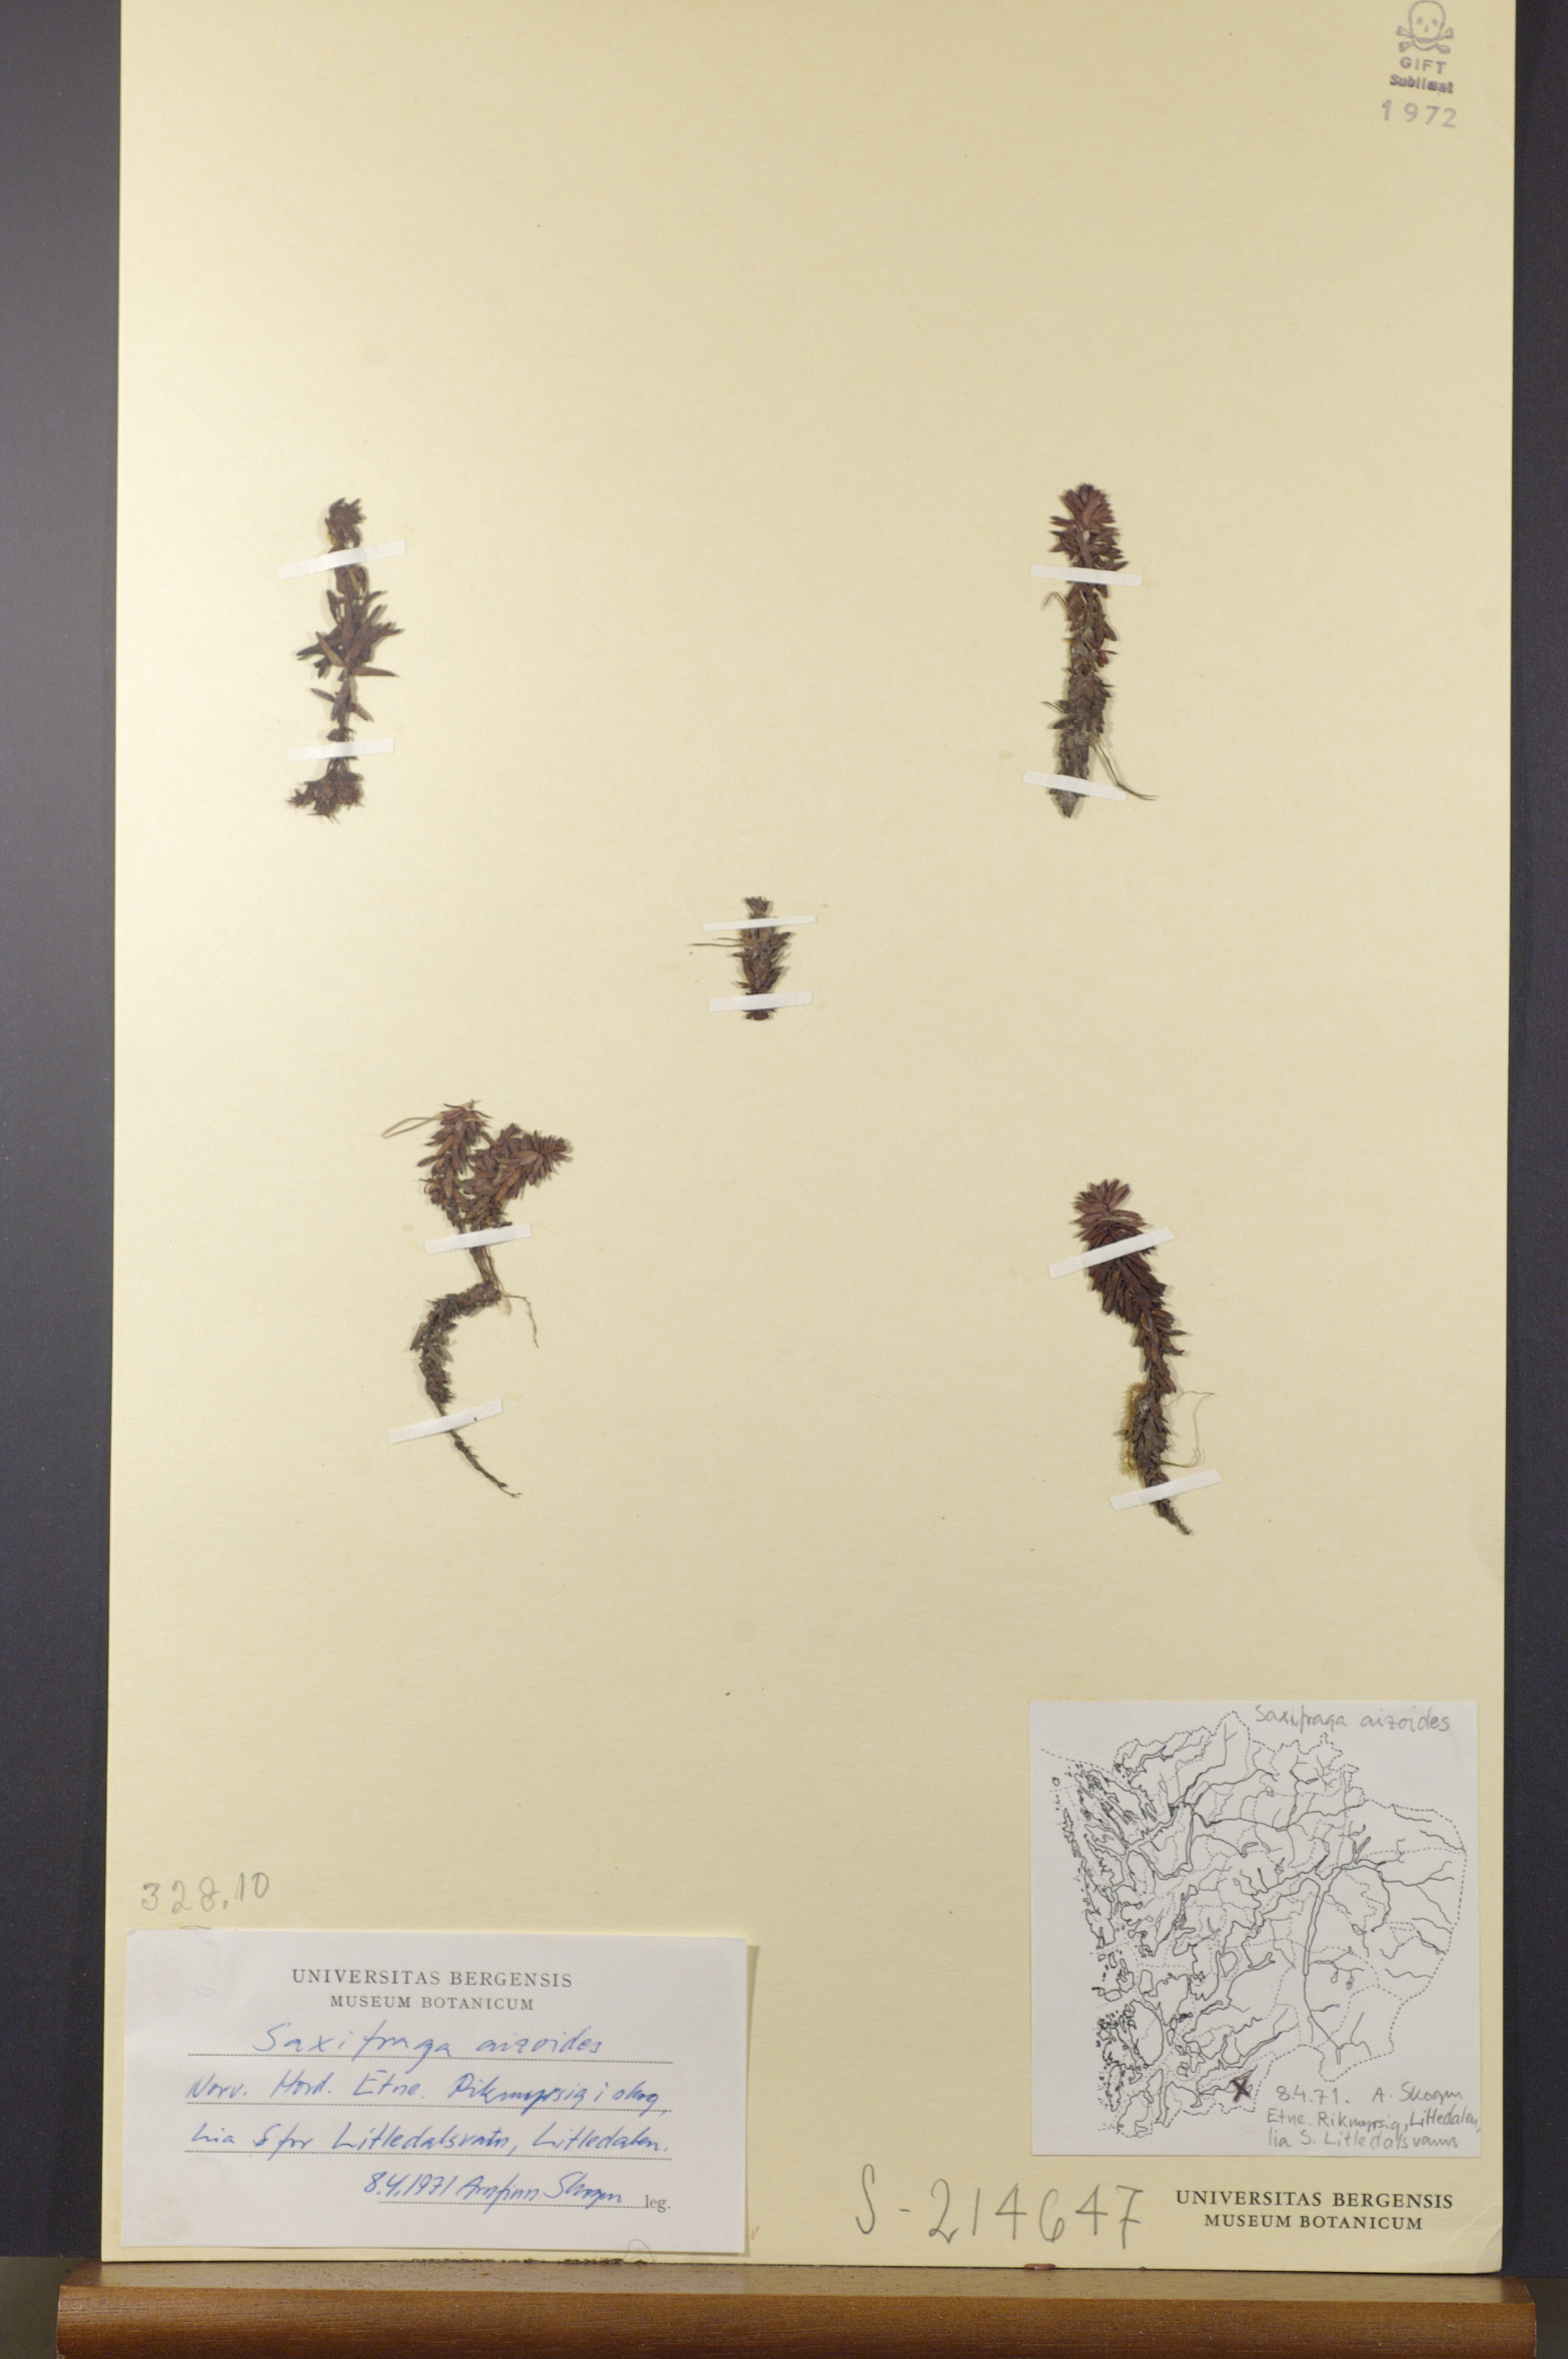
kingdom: Plantae
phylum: Tracheophyta
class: Magnoliopsida
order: Saxifragales
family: Saxifragaceae
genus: Saxifraga
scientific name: Saxifraga aizoides
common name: Yellow mountain saxifrage
